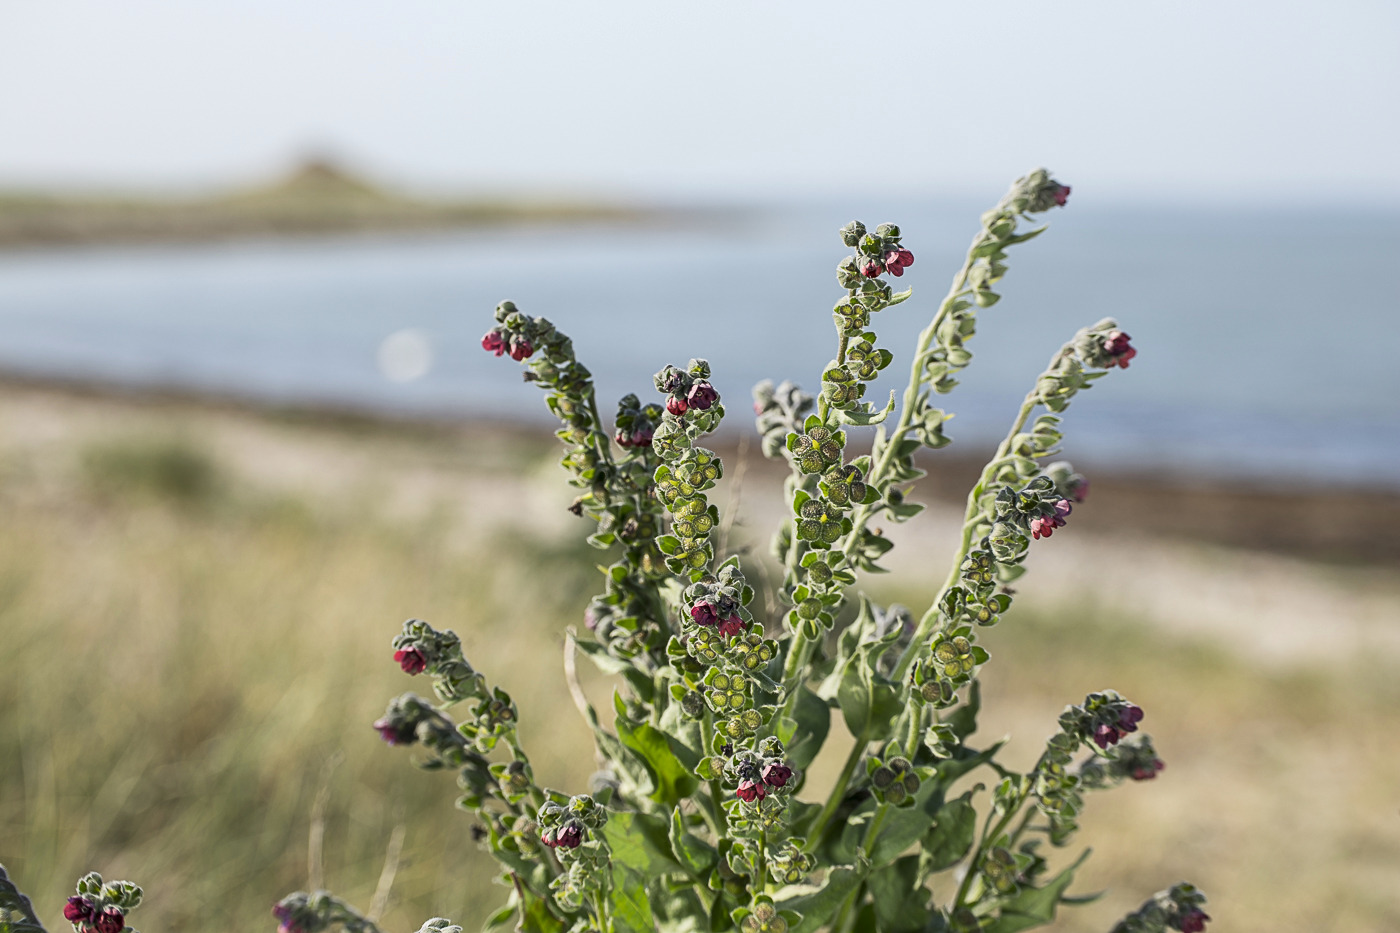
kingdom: Plantae
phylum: Tracheophyta
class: Magnoliopsida
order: Boraginales
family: Boraginaceae
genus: Cynoglossum
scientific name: Cynoglossum officinale
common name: Hundetunge
